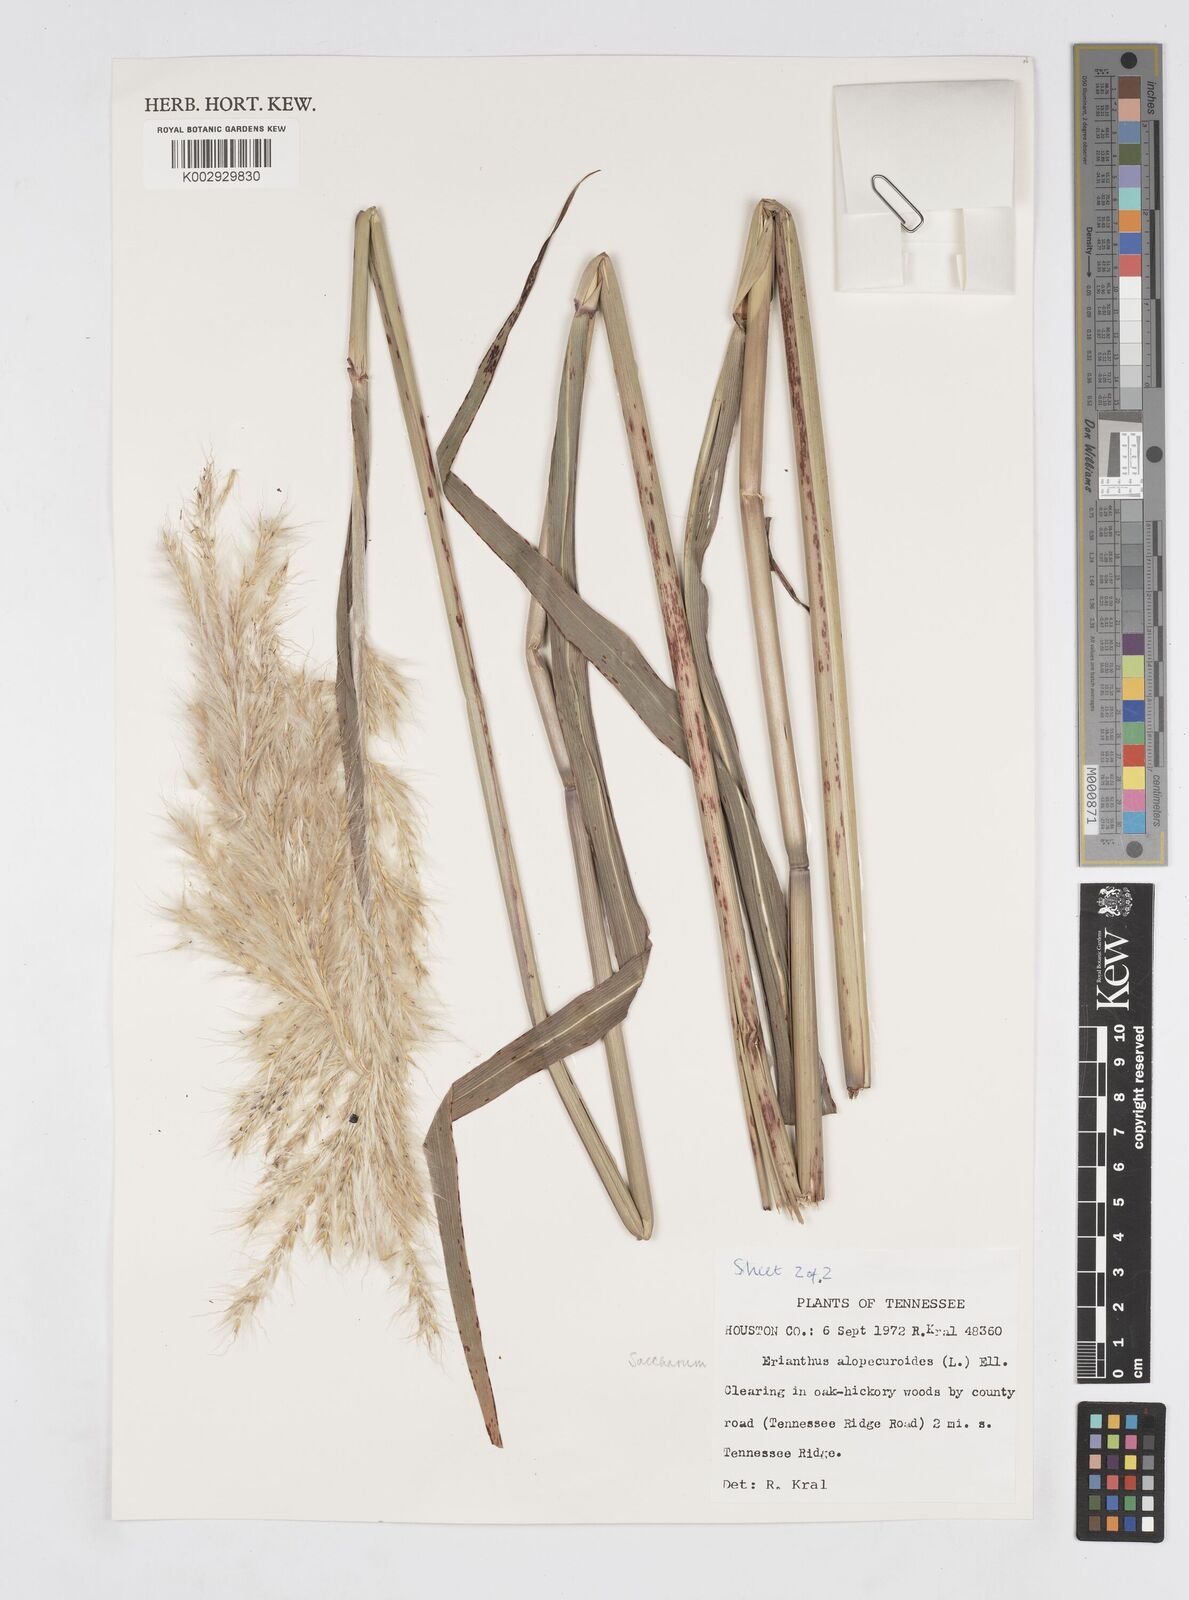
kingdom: Plantae
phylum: Tracheophyta
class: Liliopsida
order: Poales
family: Poaceae
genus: Erianthus
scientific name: Erianthus alopecuroides
